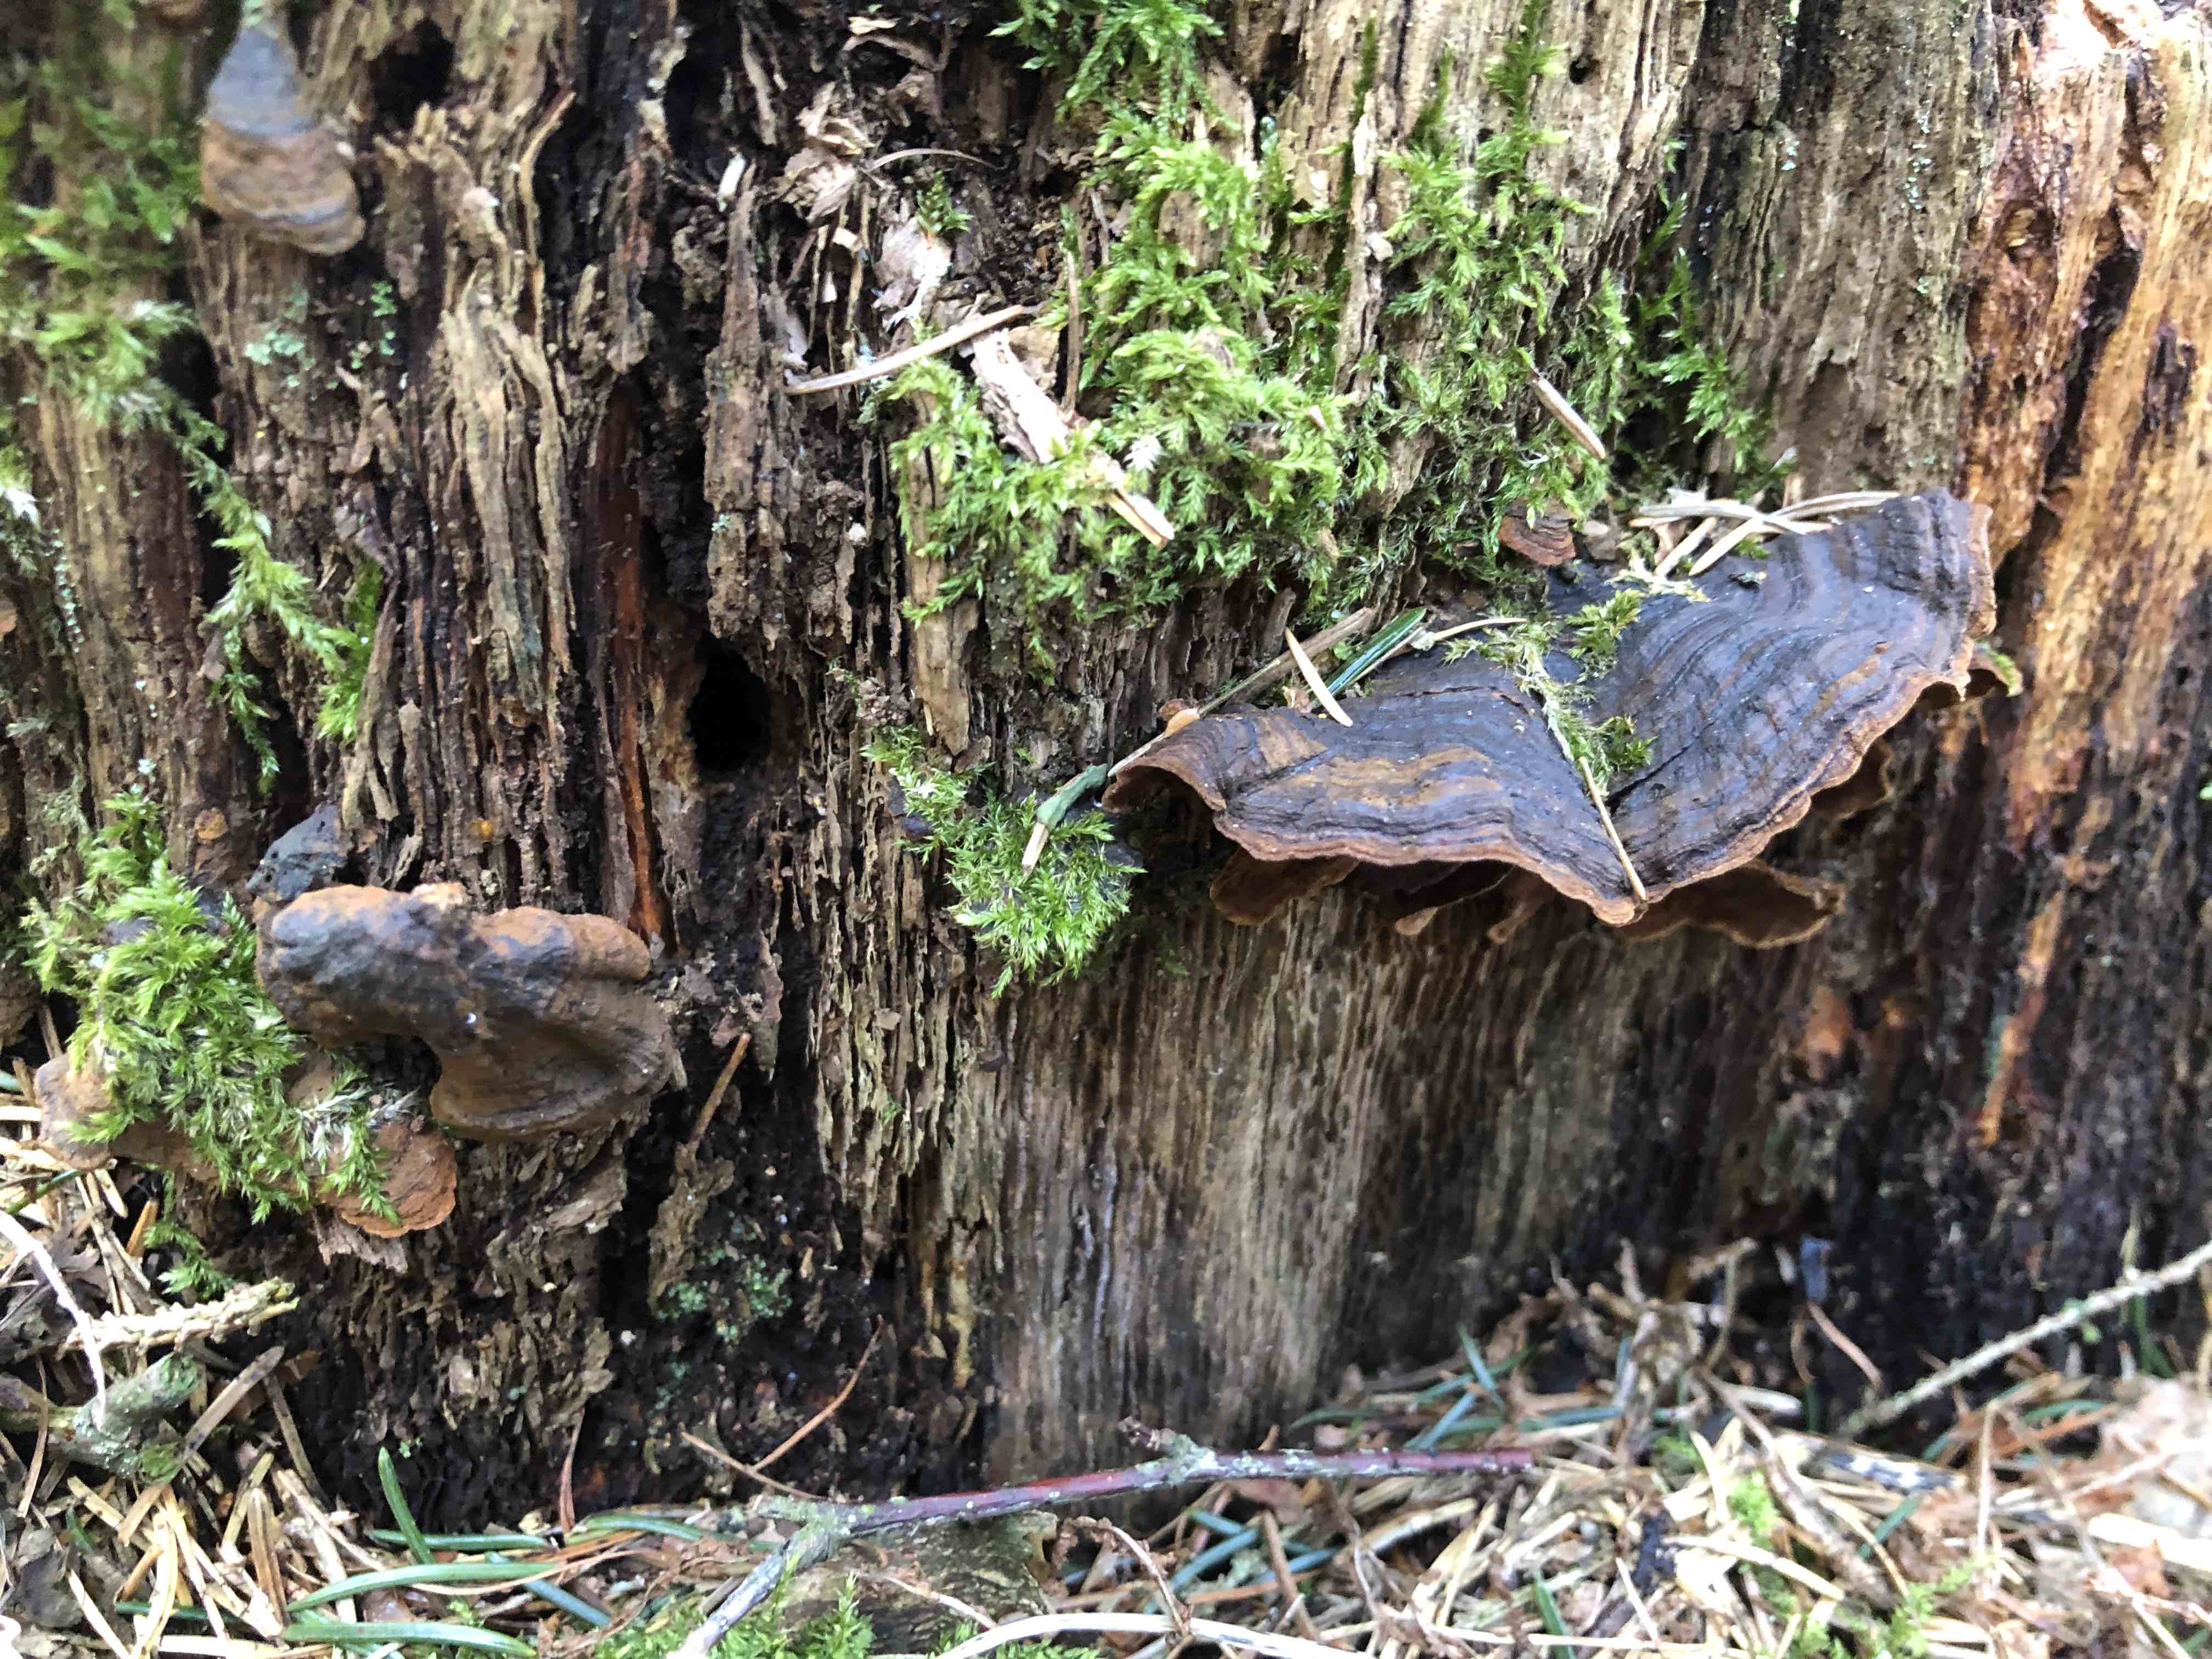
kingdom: Fungi
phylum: Basidiomycota
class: Agaricomycetes
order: Hymenochaetales
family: Hymenochaetaceae
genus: Hymenochaete
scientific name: Hymenochaete rubiginosa
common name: stiv ruslædersvamp
